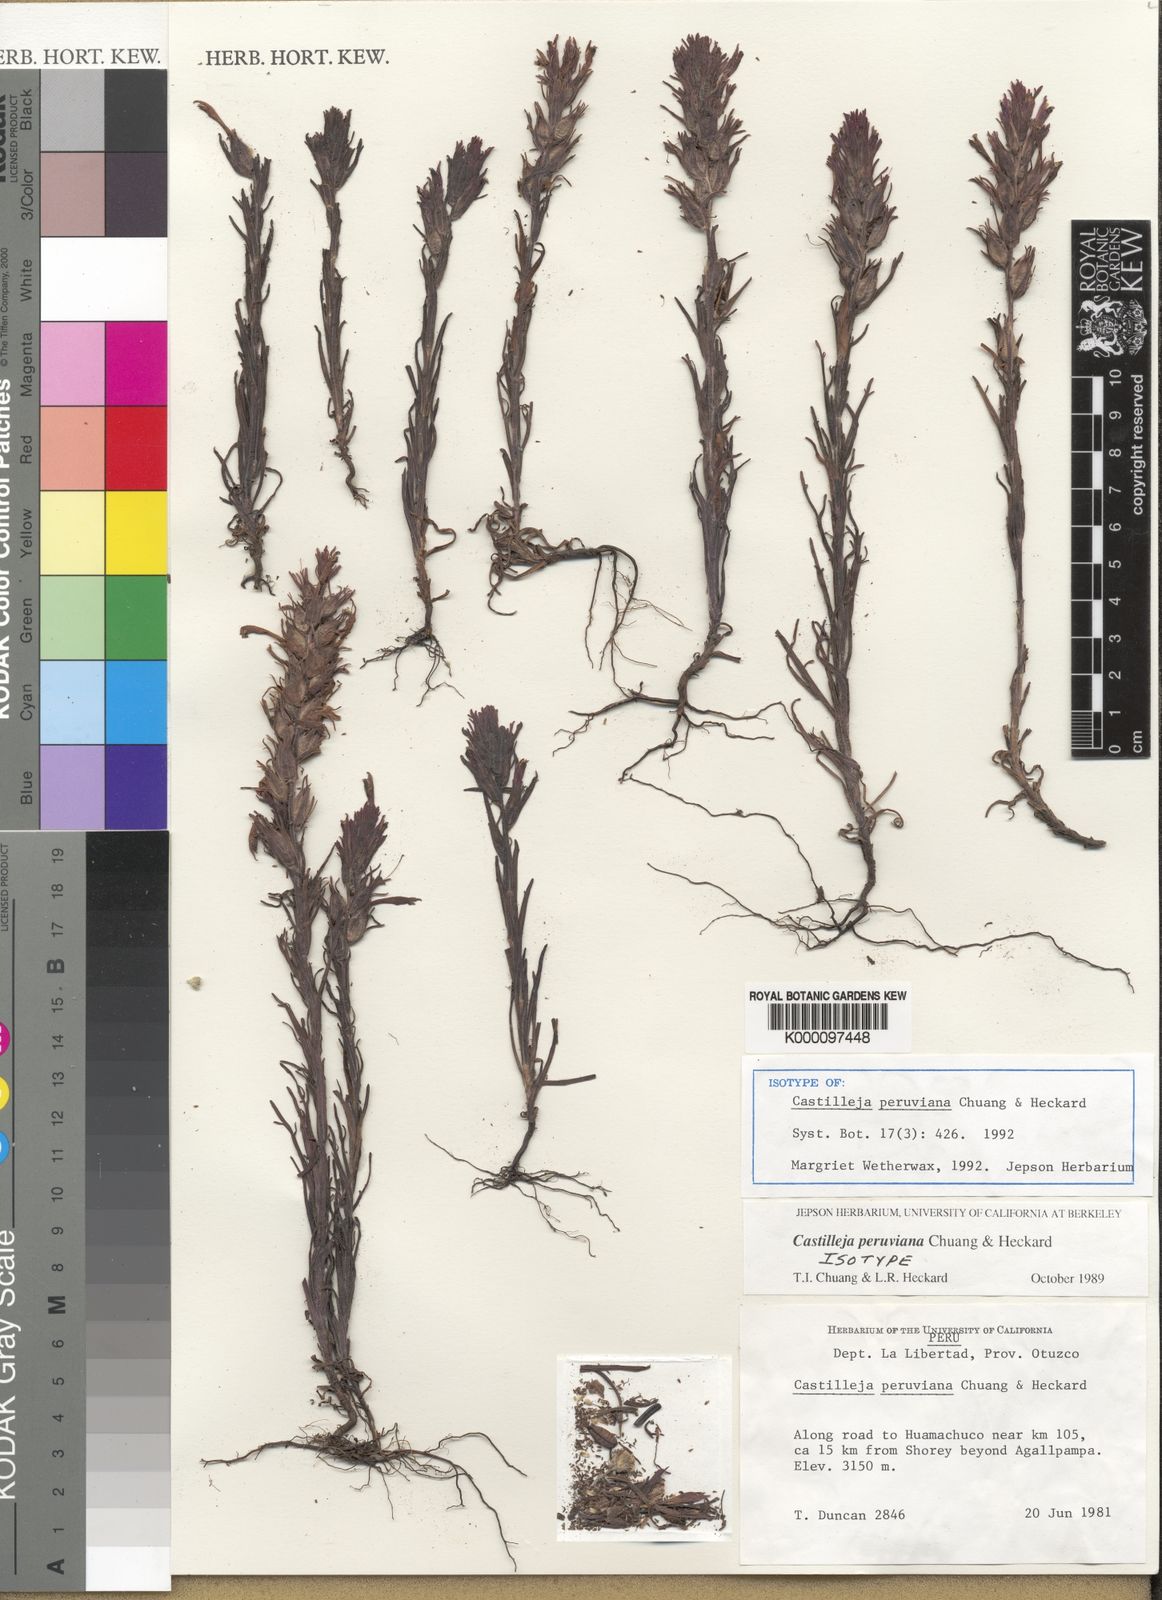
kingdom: Plantae
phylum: Tracheophyta
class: Magnoliopsida
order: Lamiales
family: Orobanchaceae
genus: Castilleja
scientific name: Castilleja peruviana
